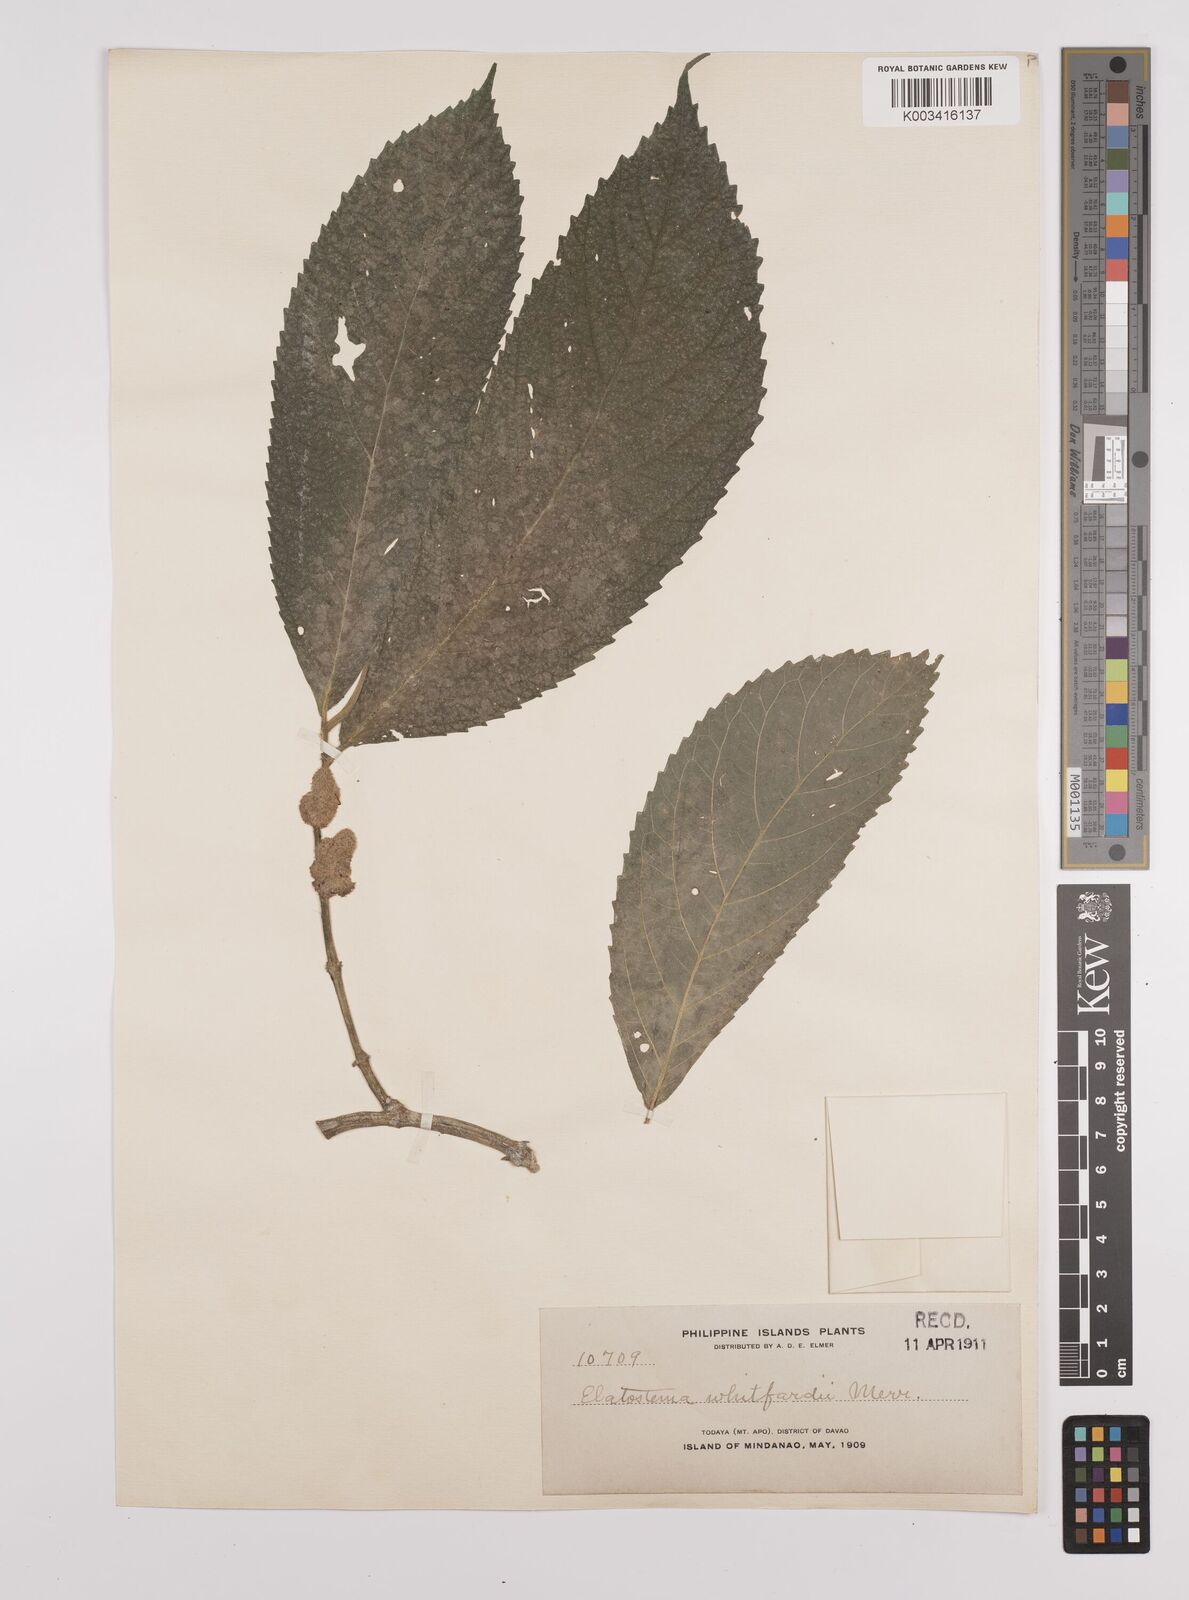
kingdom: Plantae
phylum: Tracheophyta
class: Magnoliopsida
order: Rosales
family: Urticaceae
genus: Elatostema
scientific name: Elatostema whitfordii
